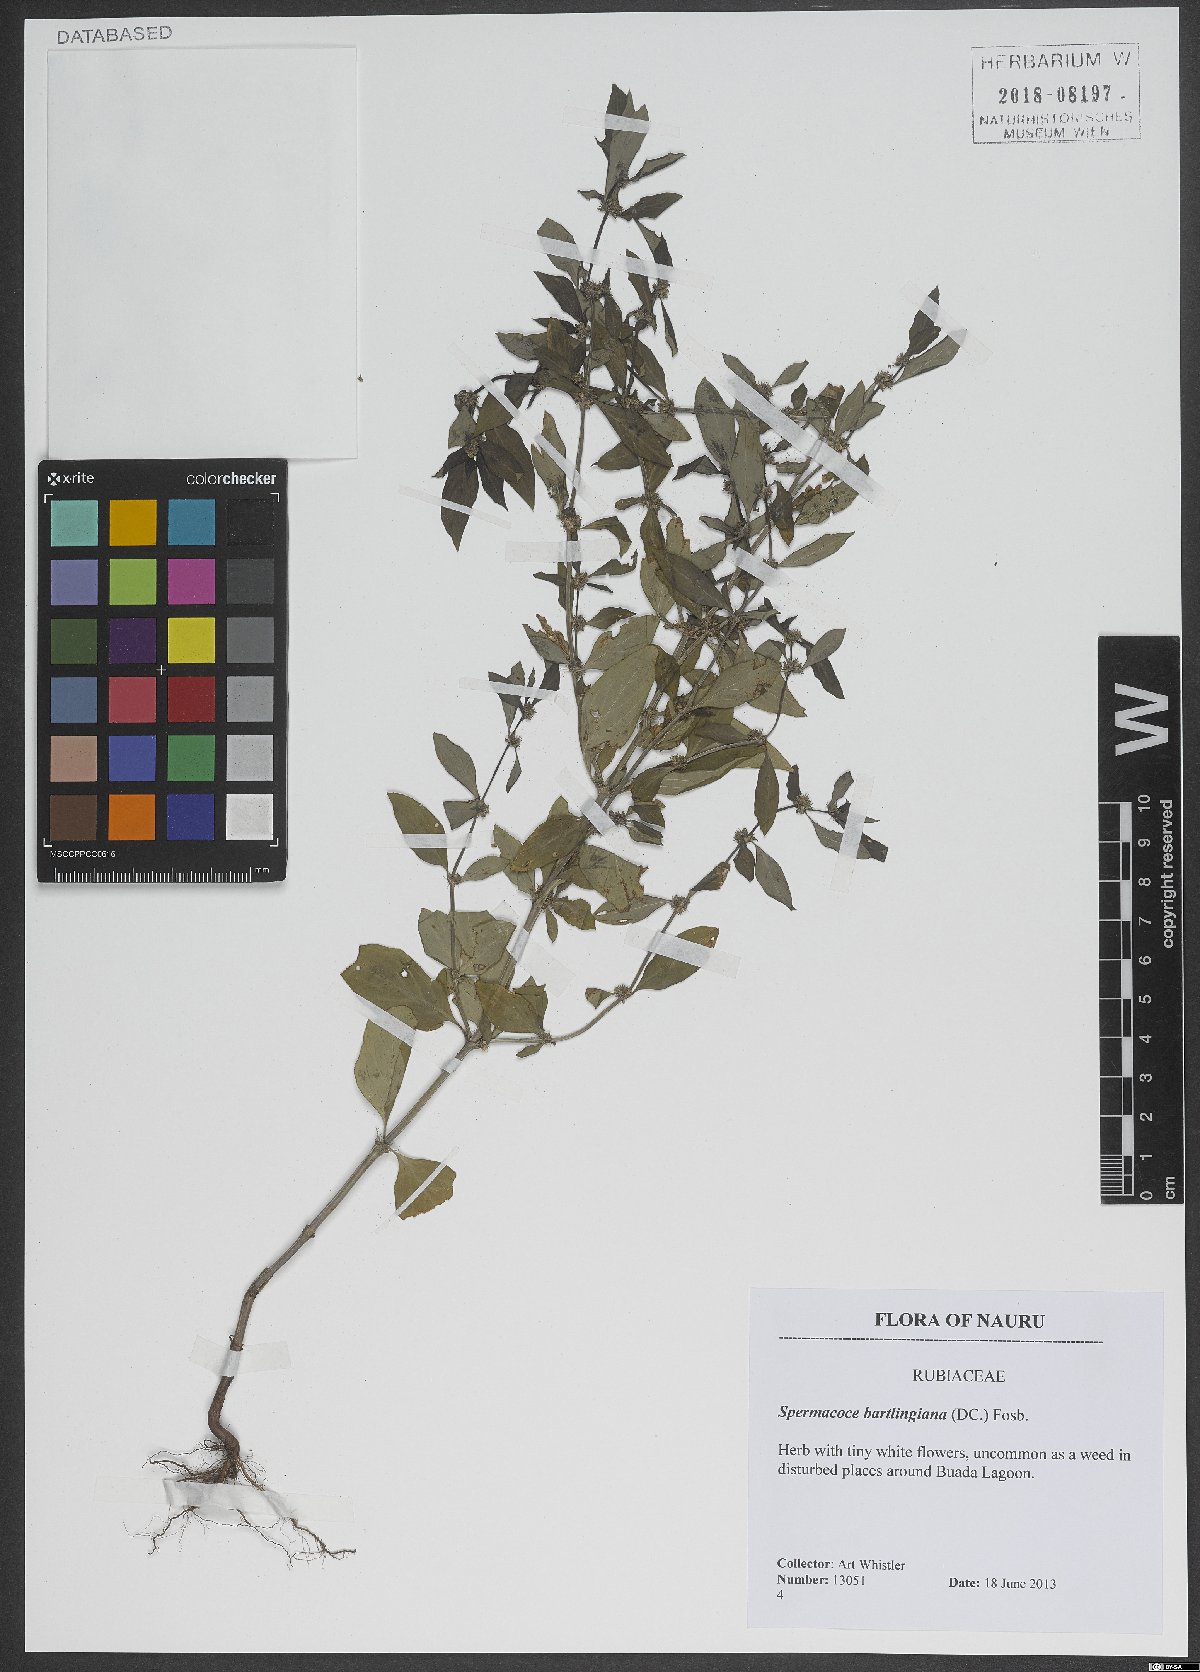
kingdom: Plantae
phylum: Tracheophyta
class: Magnoliopsida
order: Gentianales
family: Rubiaceae
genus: Spermacoce
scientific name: Spermacoce latifolia
